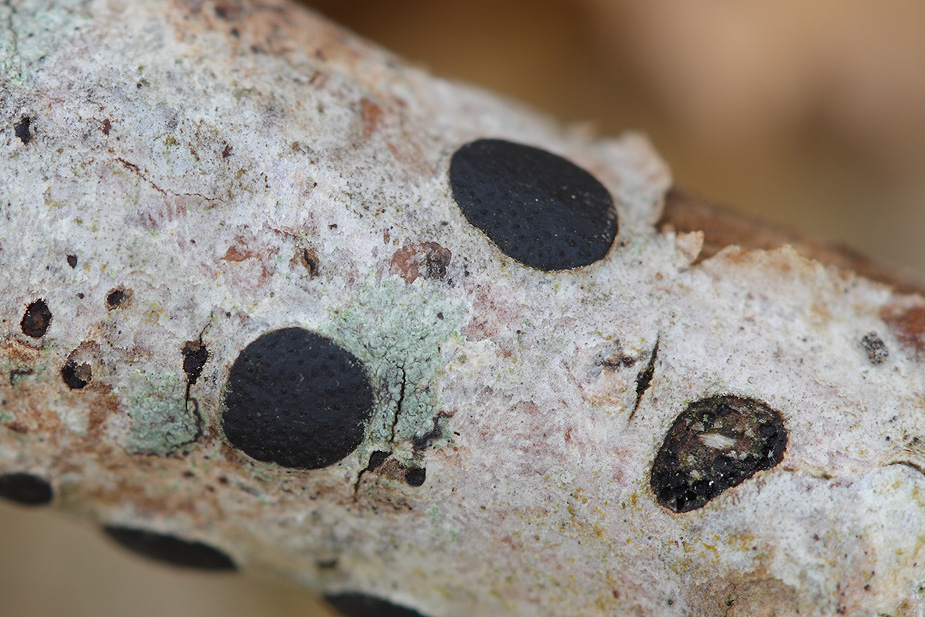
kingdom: Fungi
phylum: Ascomycota
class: Sordariomycetes
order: Xylariales
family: Diatrypaceae
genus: Diatrype
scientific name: Diatrype bullata
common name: pile-kulskorpe
